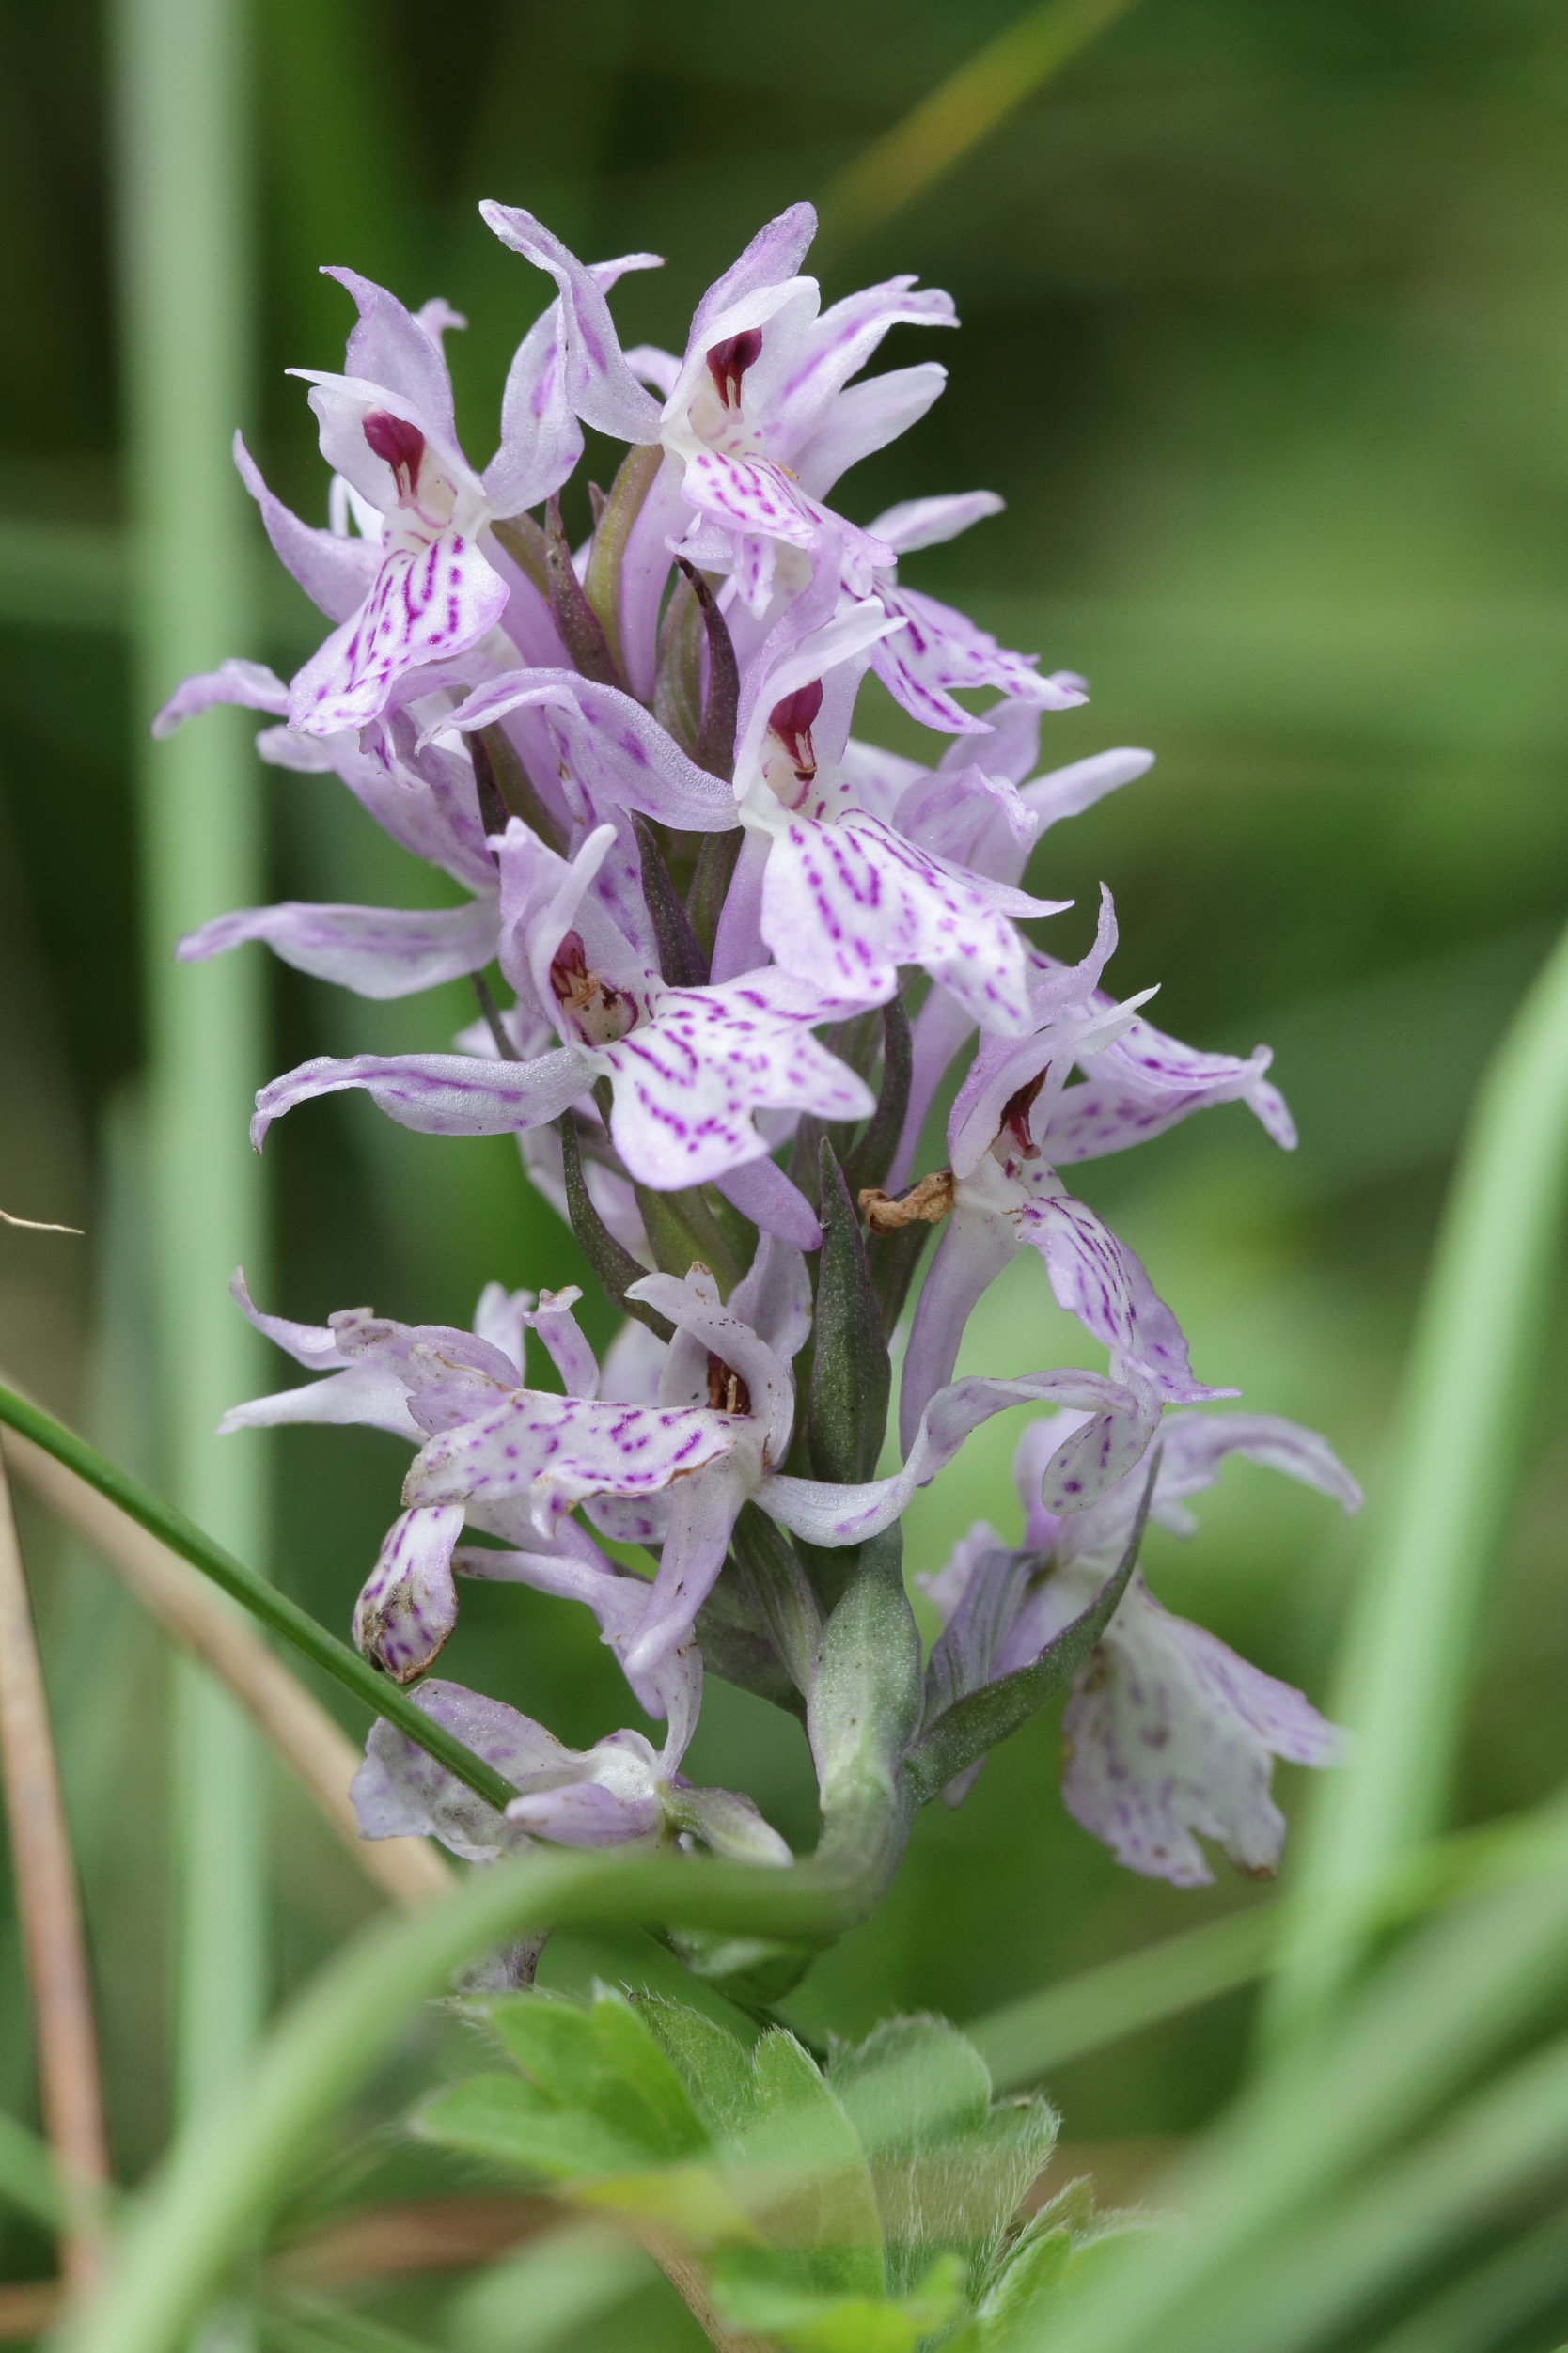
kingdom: Plantae
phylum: Tracheophyta
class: Liliopsida
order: Asparagales
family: Orchidaceae
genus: Dactylorhiza
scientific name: Dactylorhiza maculata
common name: Plettet gøgeurt
